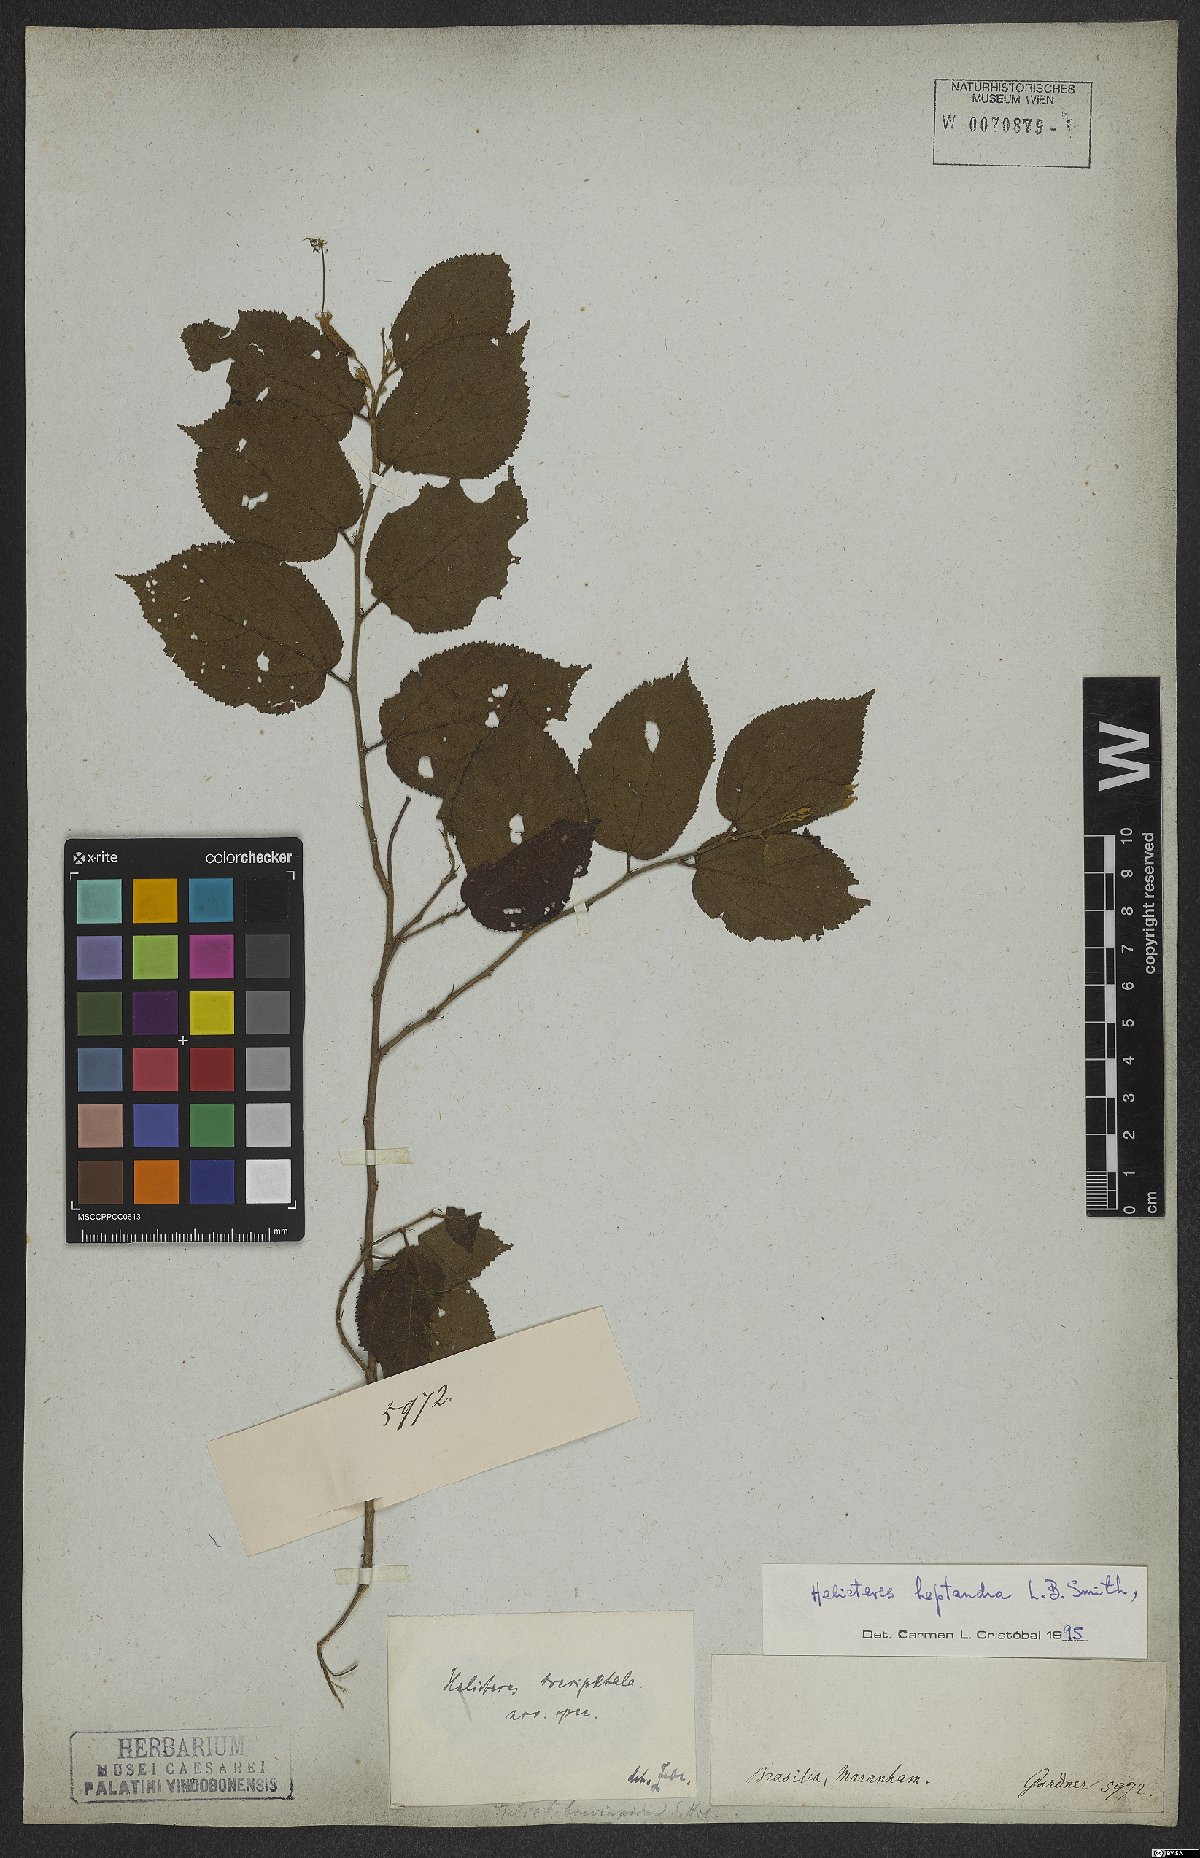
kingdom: Plantae
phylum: Tracheophyta
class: Magnoliopsida
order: Malvales
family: Malvaceae
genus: Helicteres
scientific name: Helicteres heptandra
